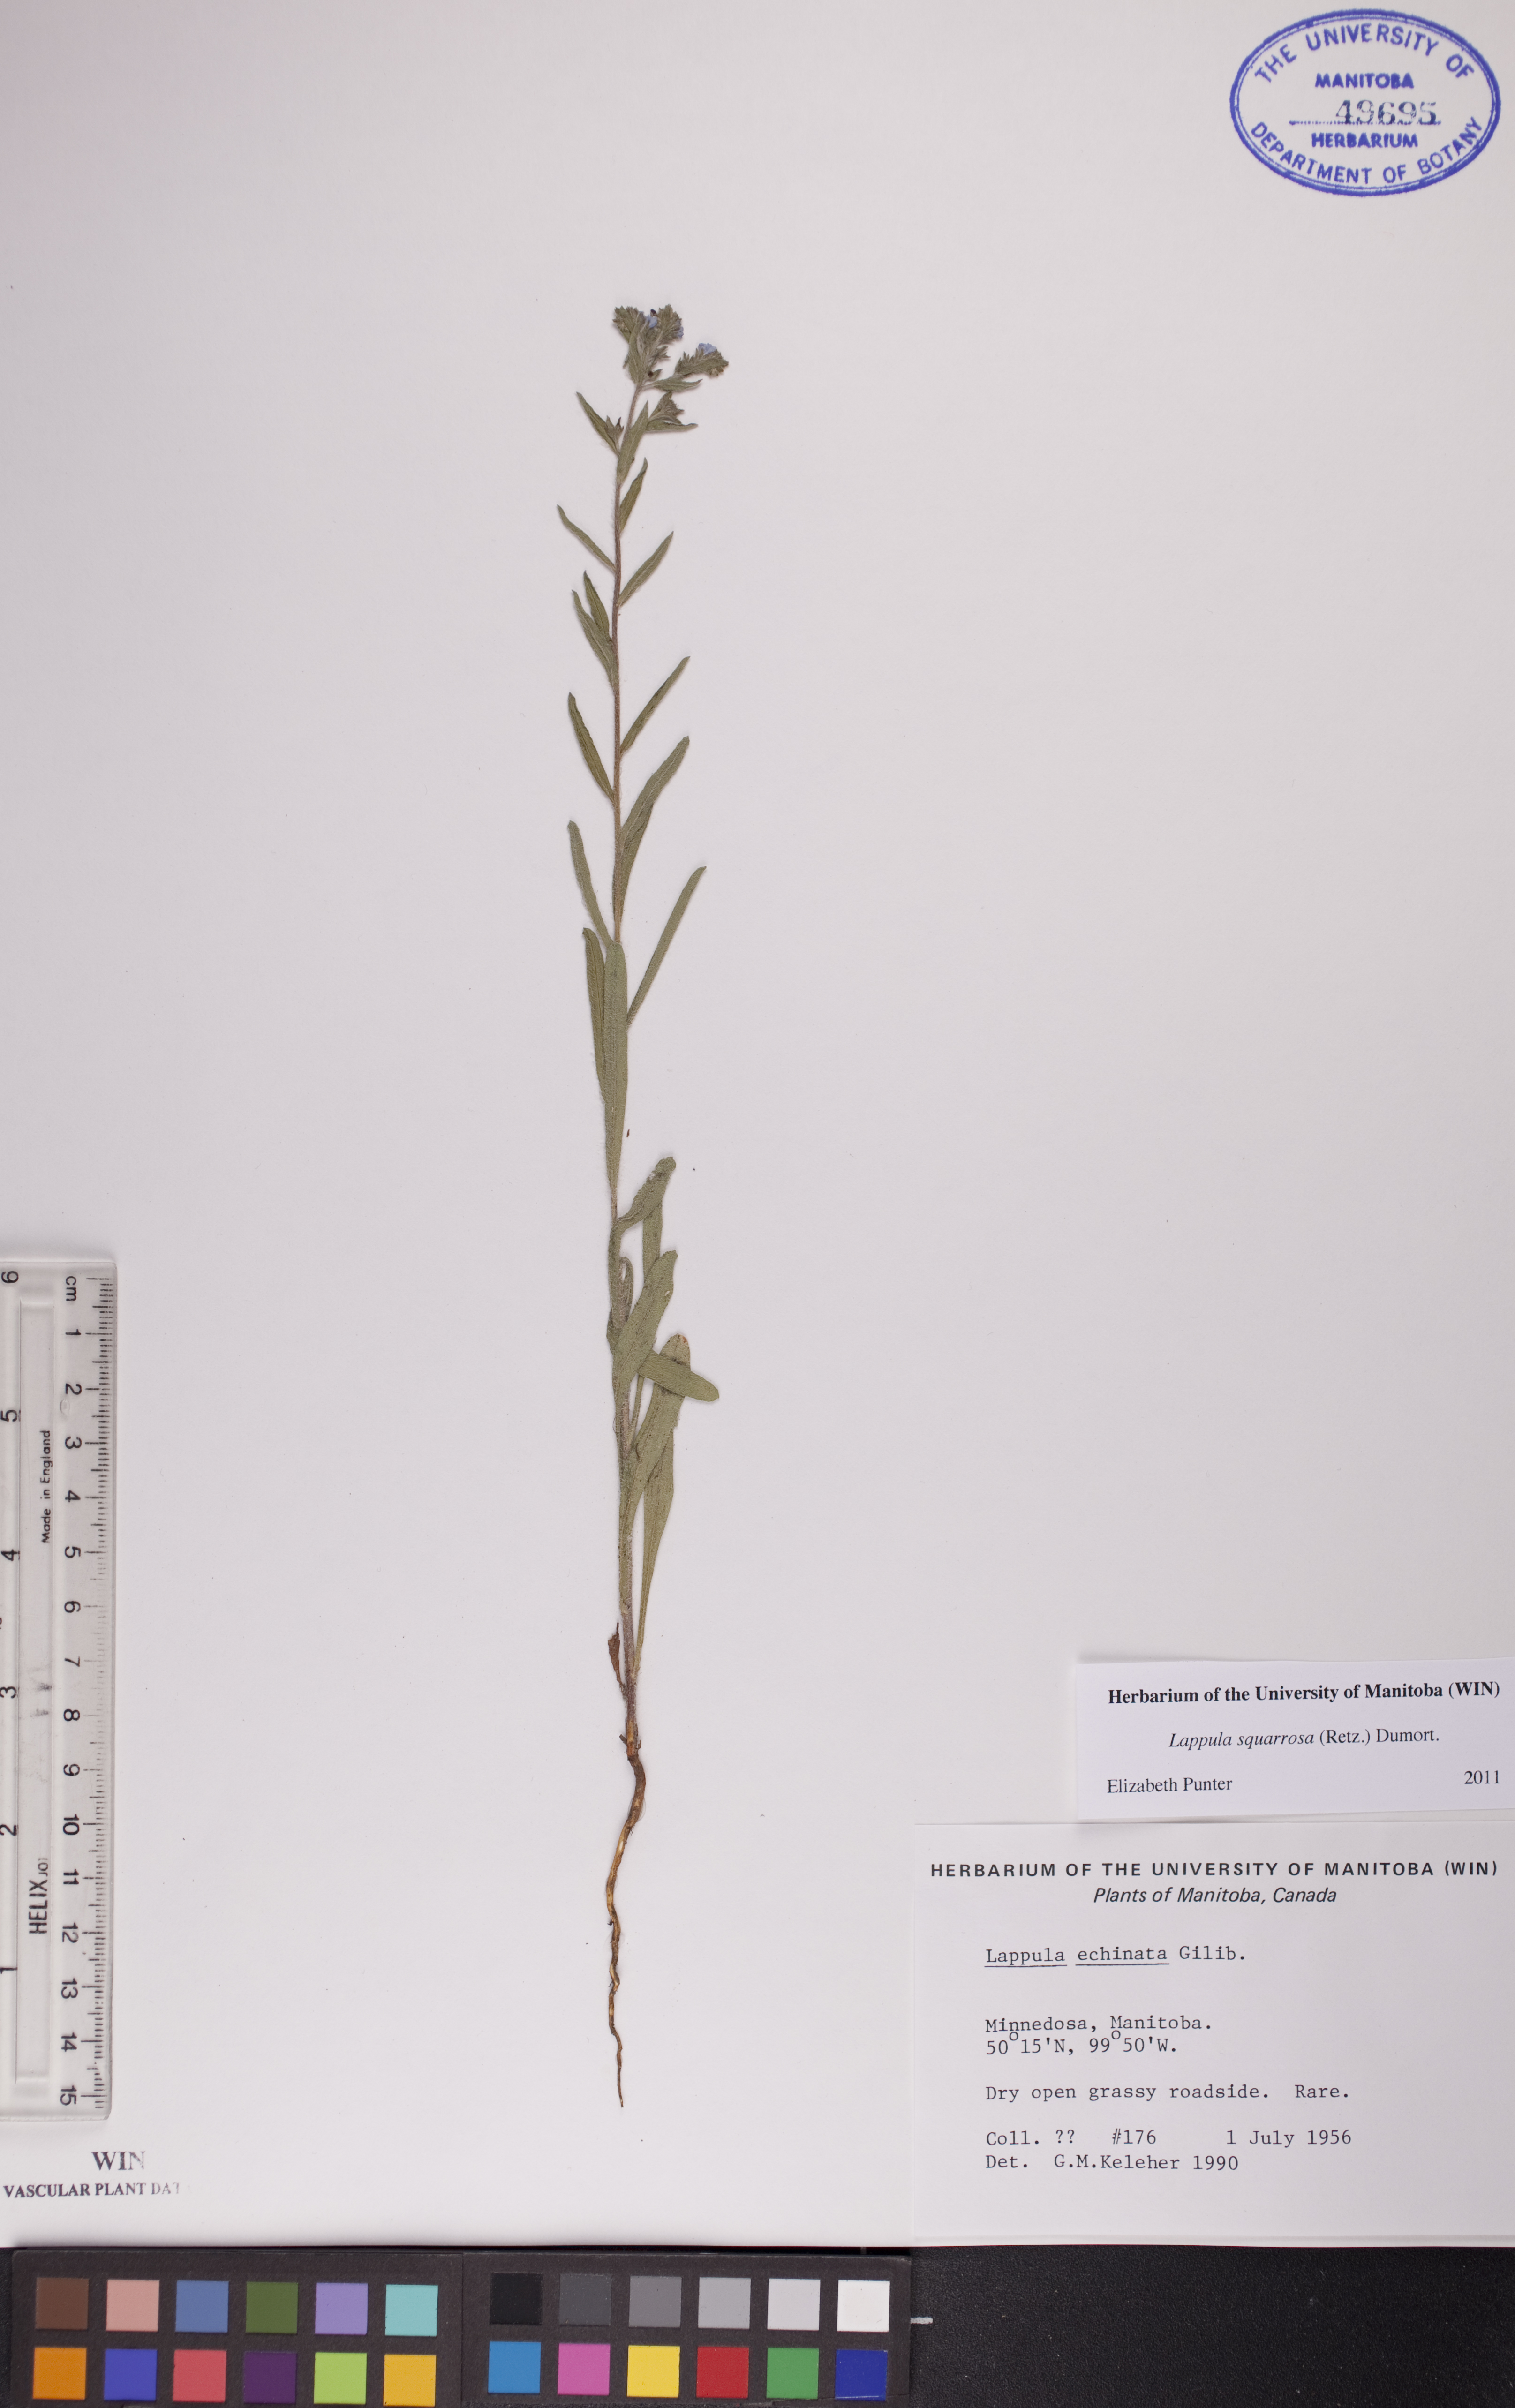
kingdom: Plantae
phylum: Tracheophyta
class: Magnoliopsida
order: Boraginales
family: Boraginaceae
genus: Lappula
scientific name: Lappula squarrosa
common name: European stickseed
